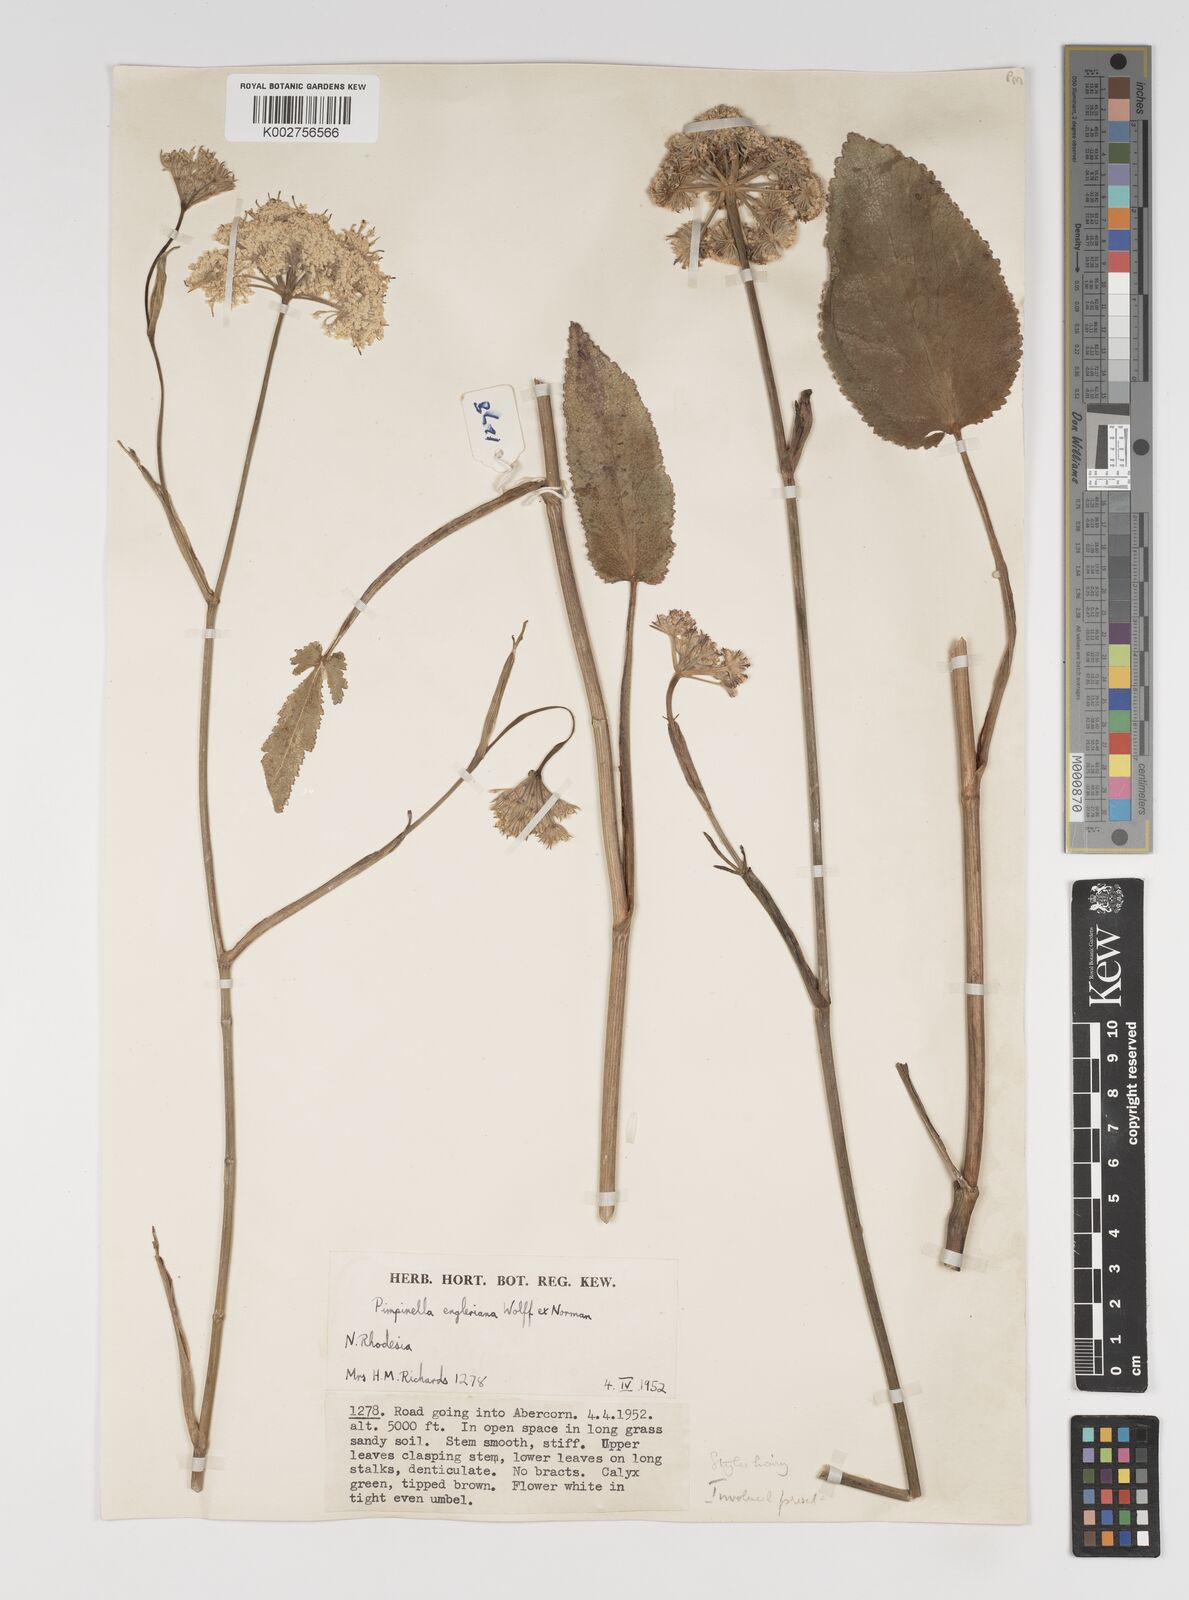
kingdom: Plantae
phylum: Tracheophyta
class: Magnoliopsida
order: Apiales
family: Apiaceae
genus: Pimpinella
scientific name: Pimpinella kingdon-wardii
